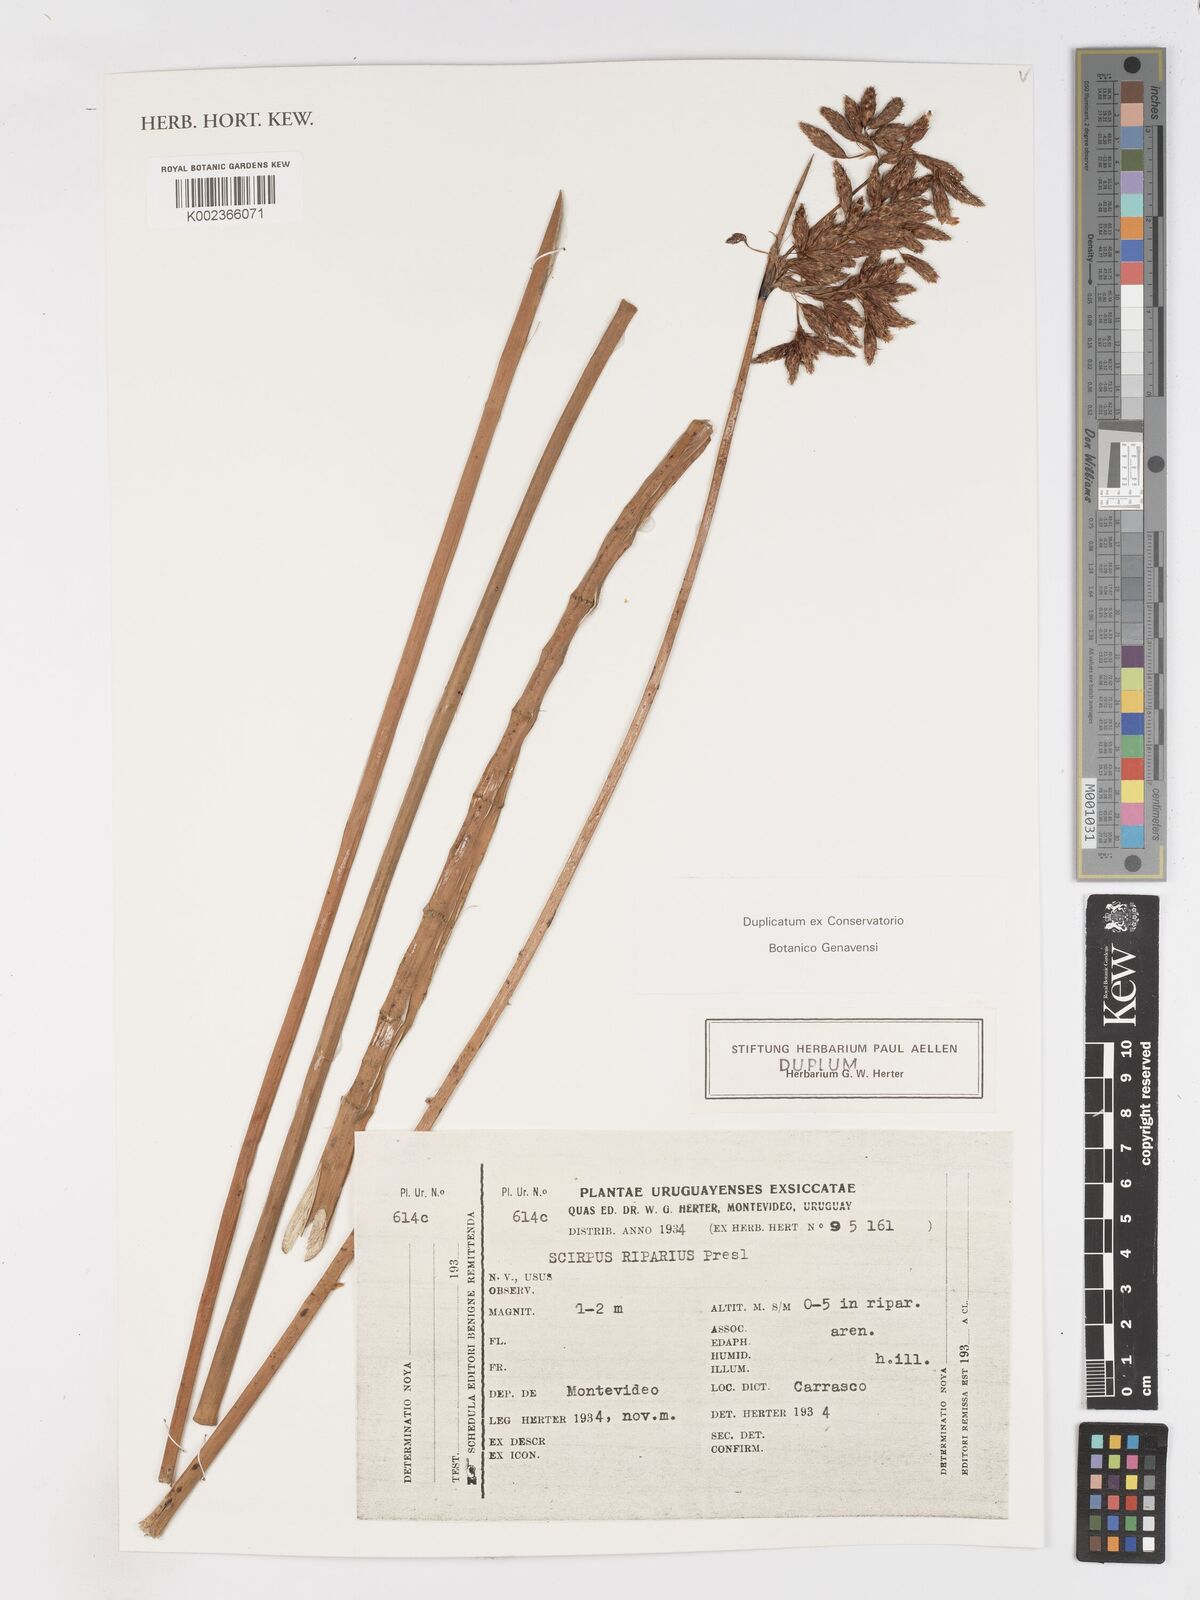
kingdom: Plantae
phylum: Tracheophyta
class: Liliopsida
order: Poales
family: Cyperaceae
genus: Schoenoplectus
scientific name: Schoenoplectus californicus
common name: California bulrush
